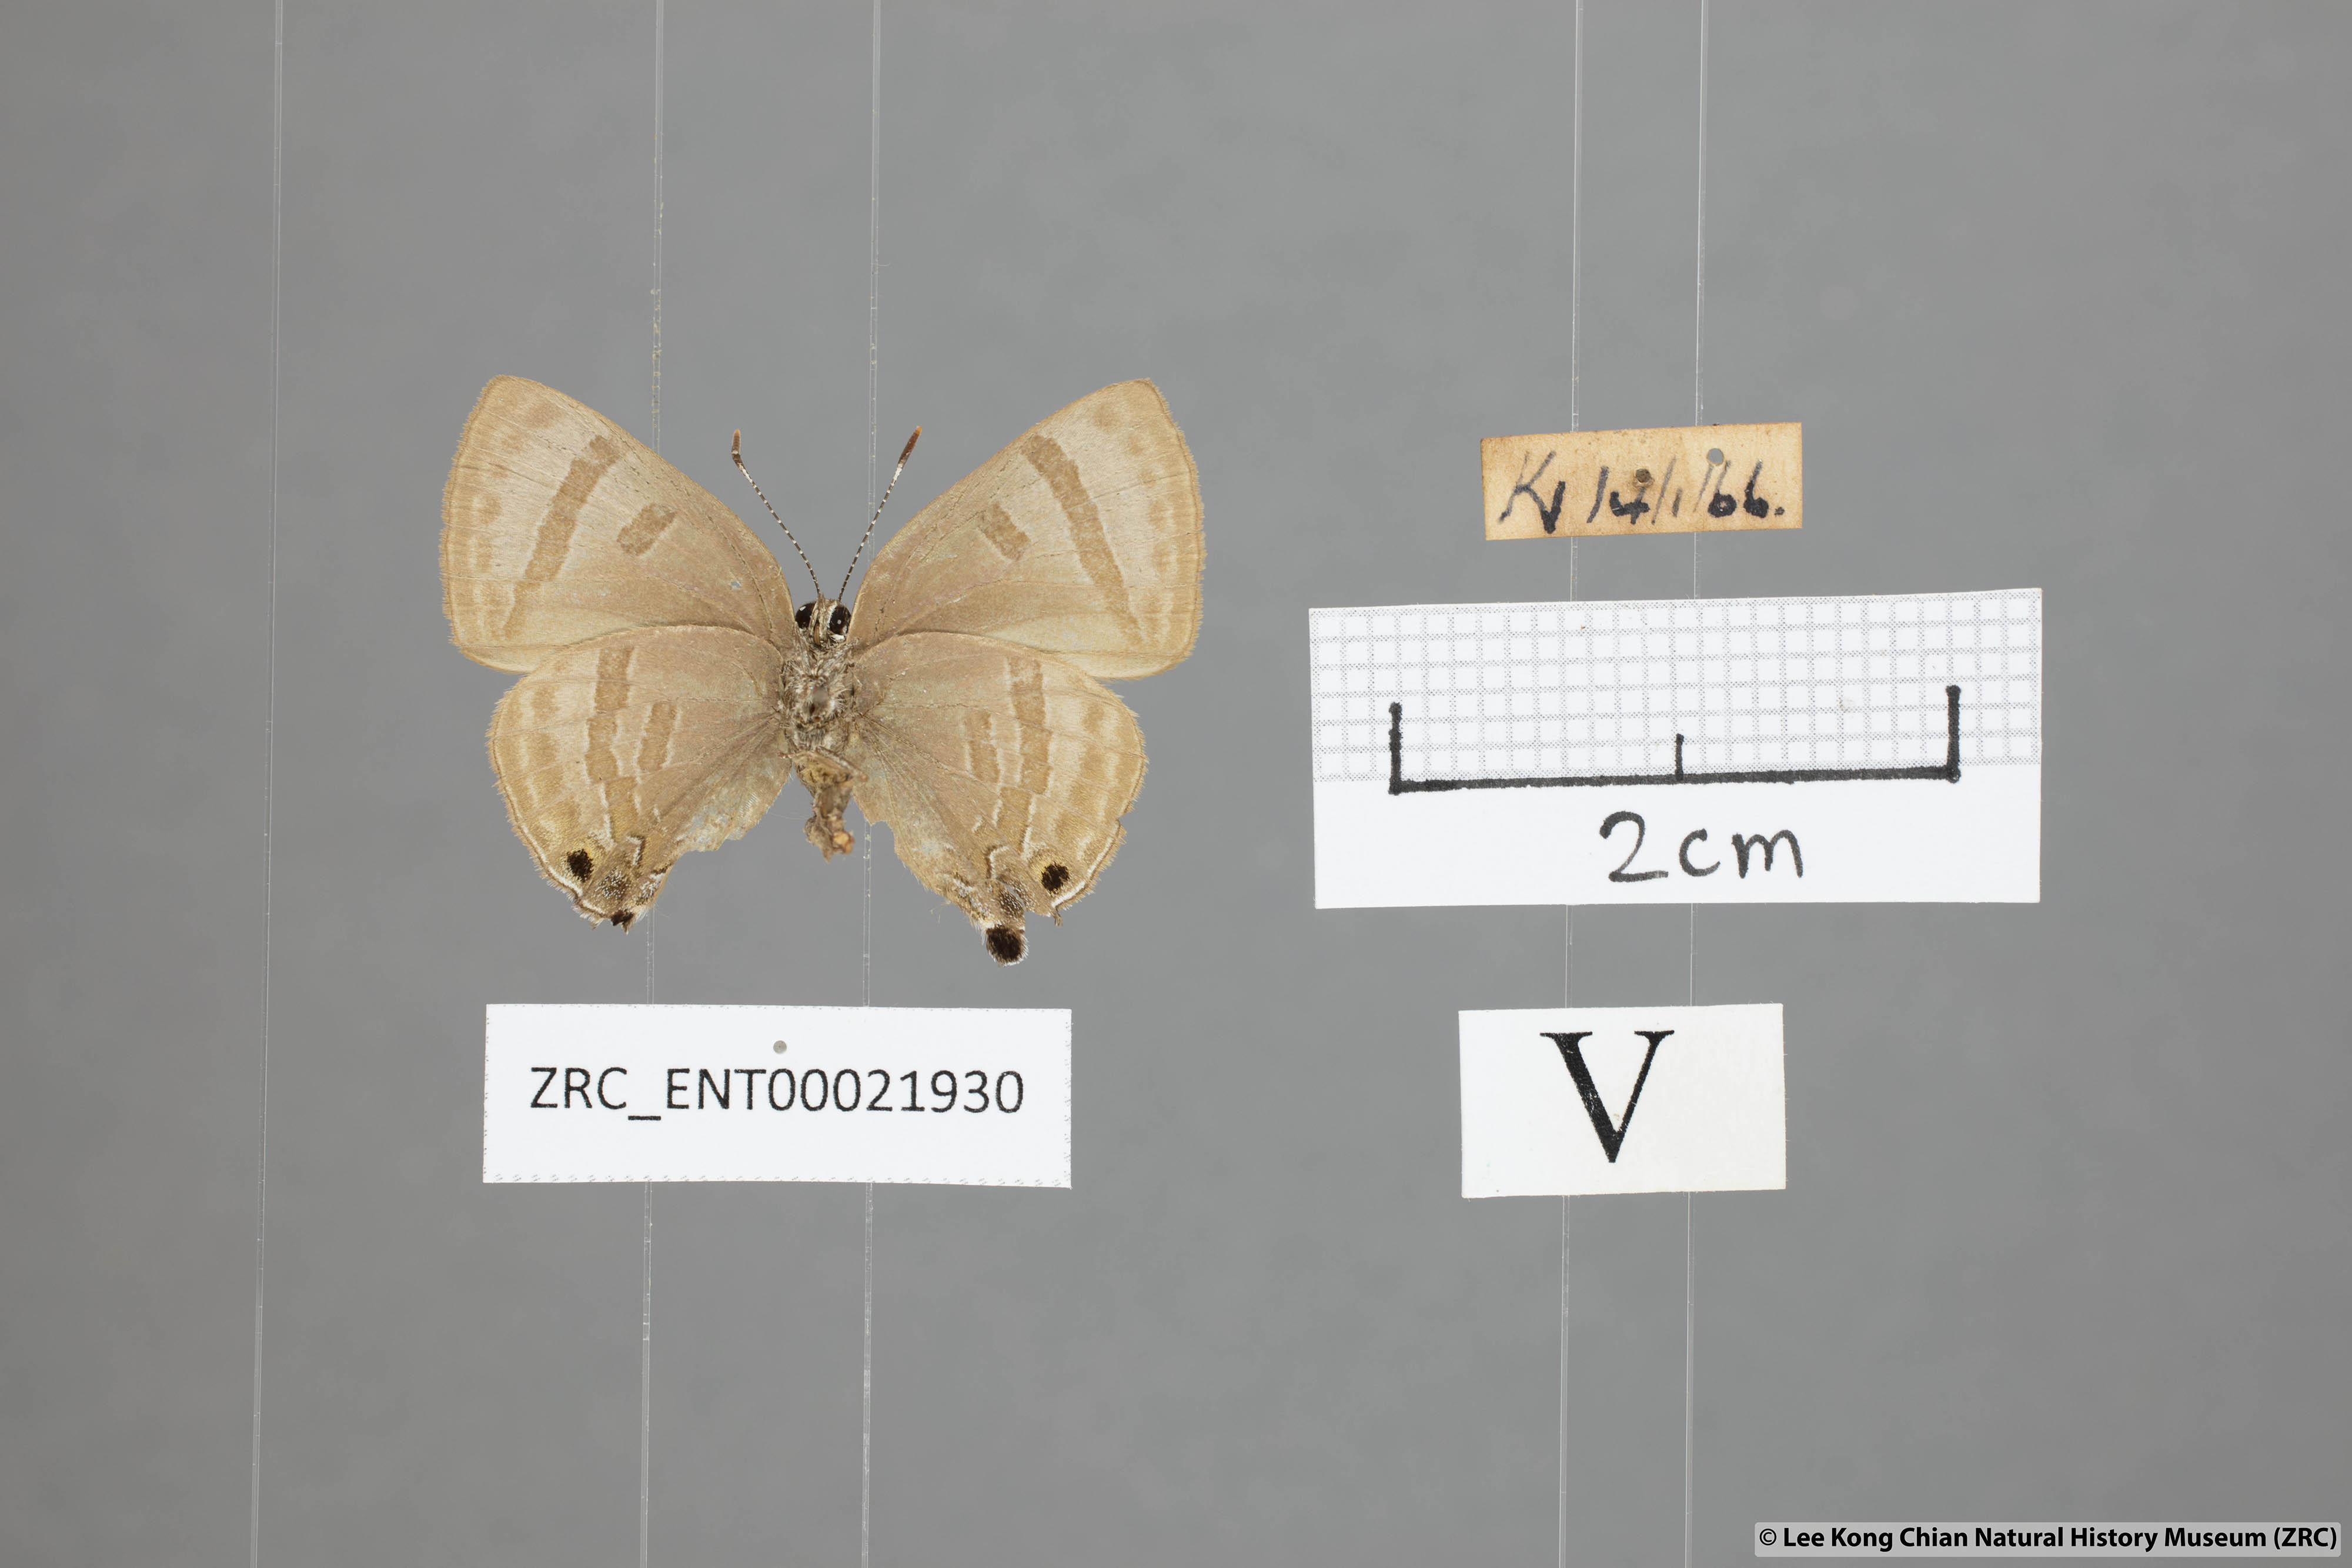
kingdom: Animalia
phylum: Arthropoda
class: Insecta
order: Lepidoptera
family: Lycaenidae
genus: Rapala
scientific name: Rapala varuna
